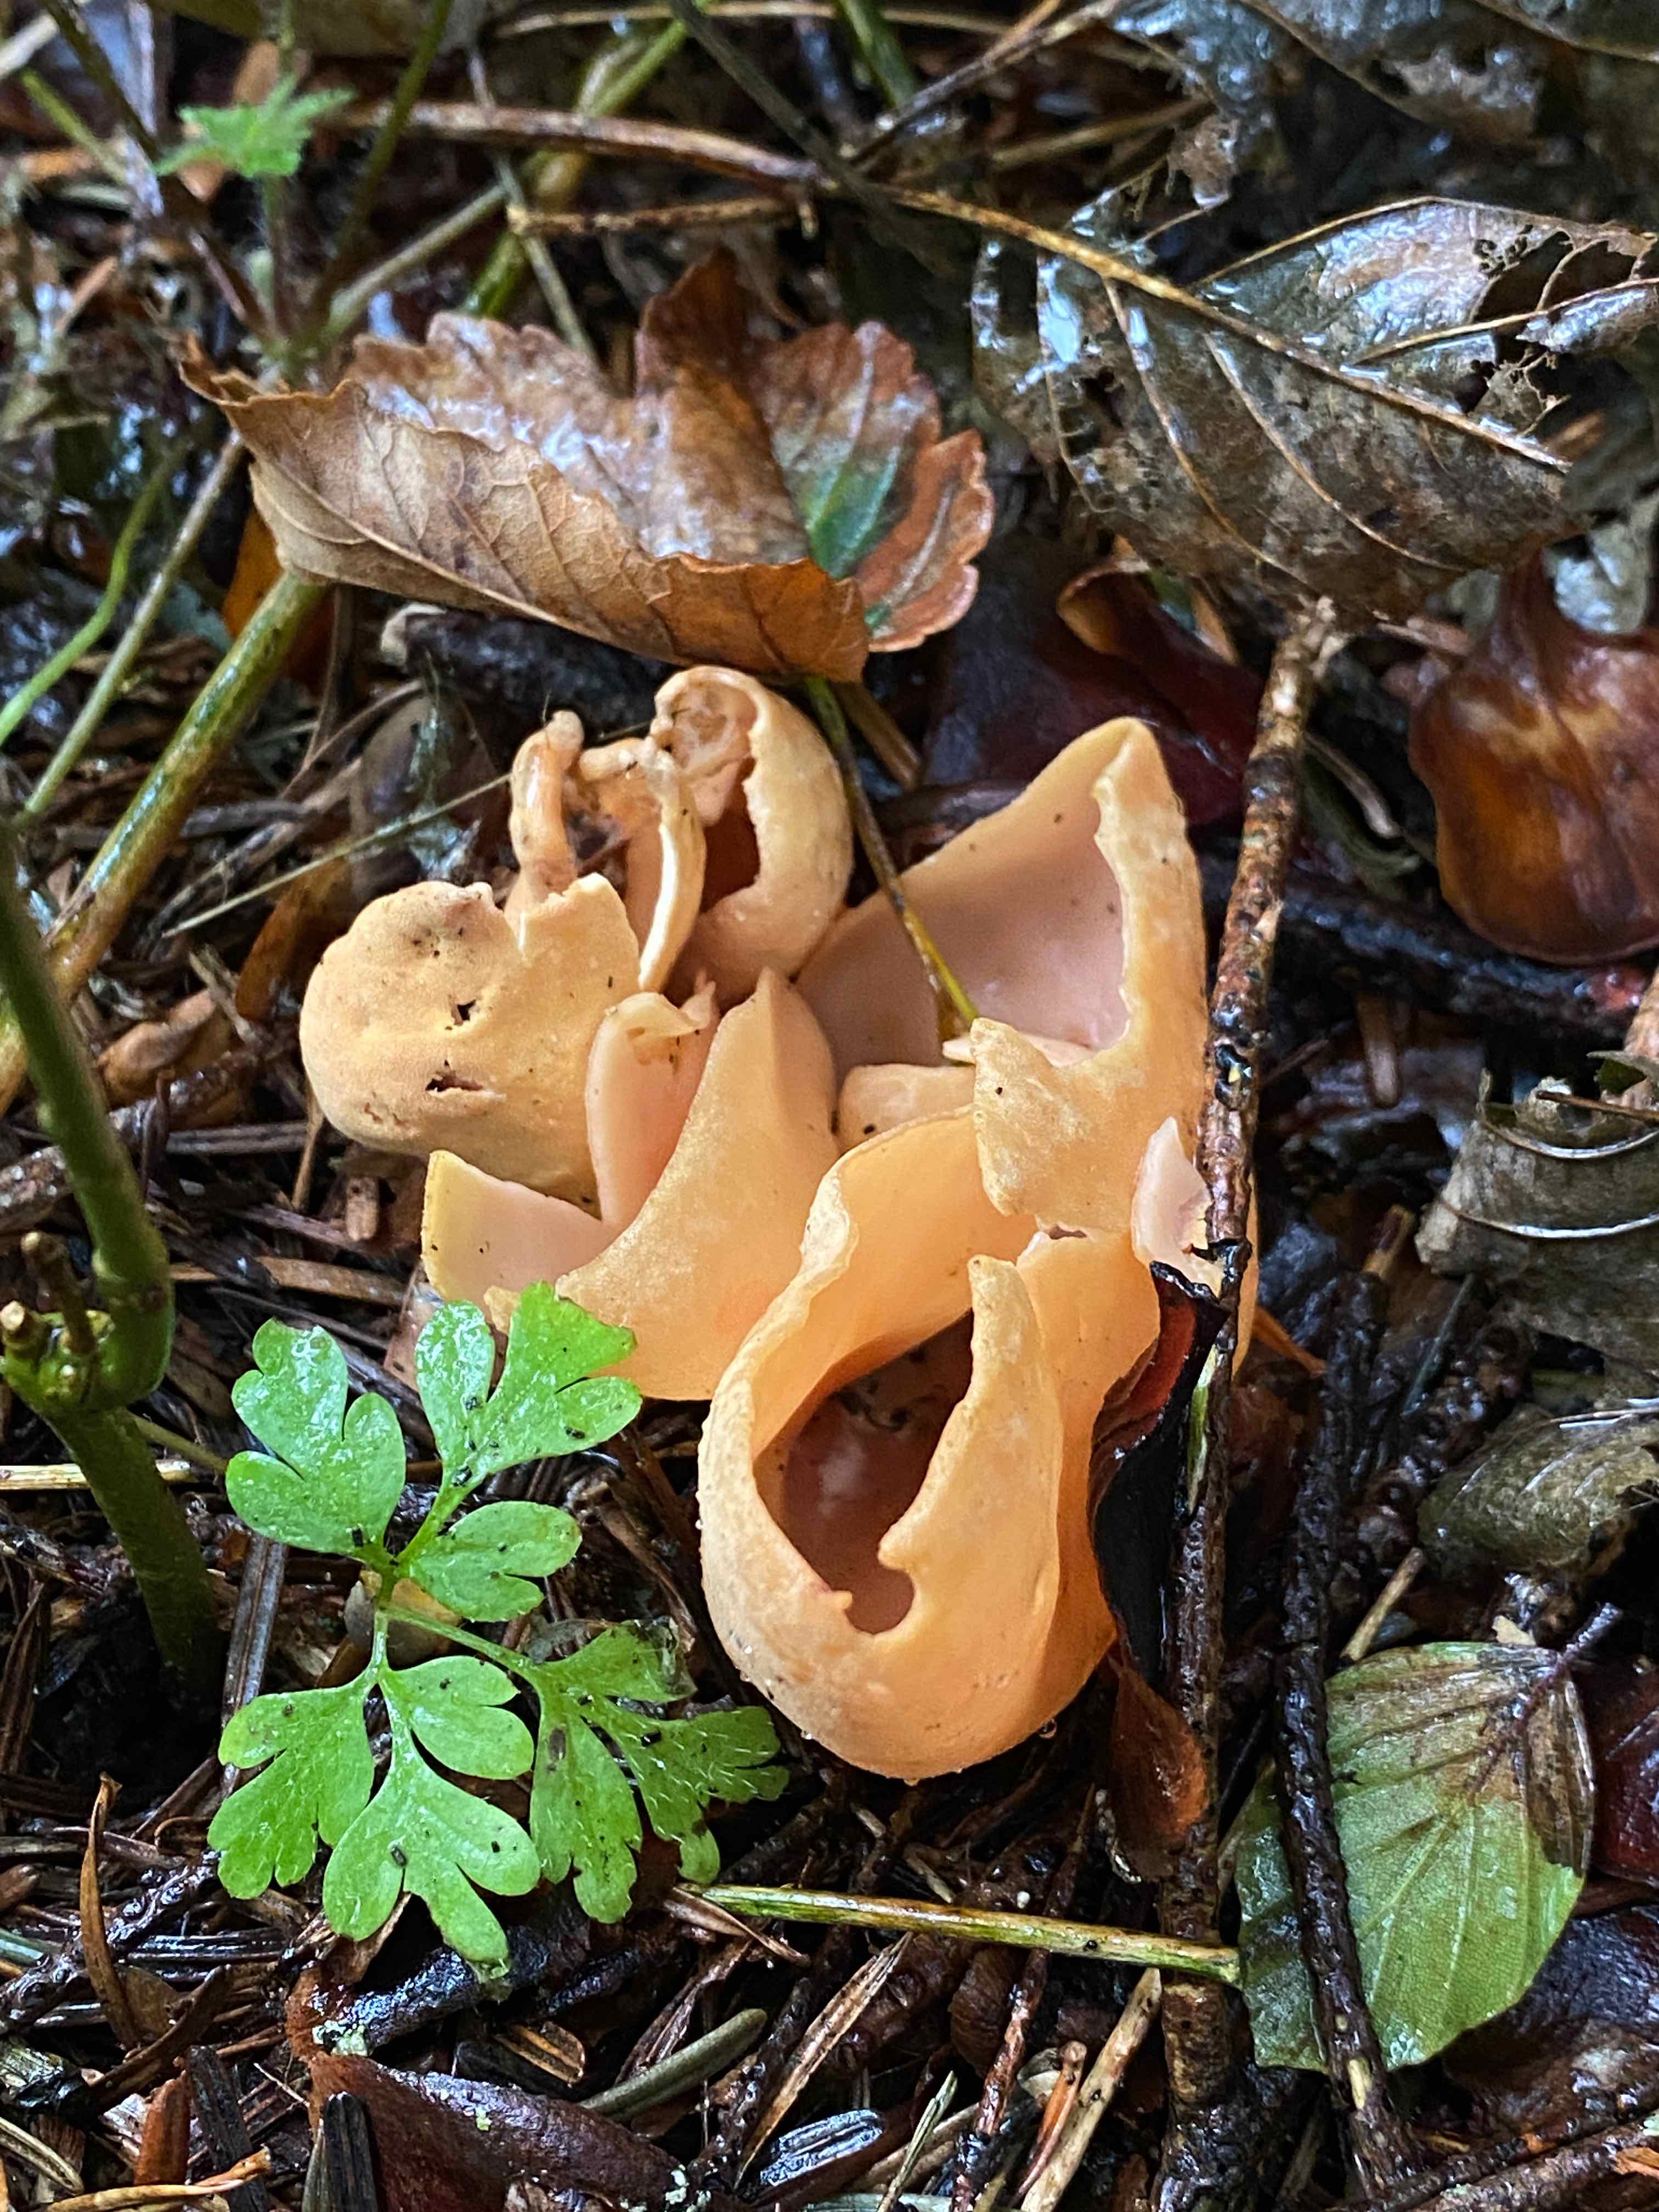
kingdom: Fungi
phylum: Ascomycota
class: Pezizomycetes
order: Pezizales
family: Otideaceae
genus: Otidea
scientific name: Otidea onotica
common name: æsel-ørebæger
